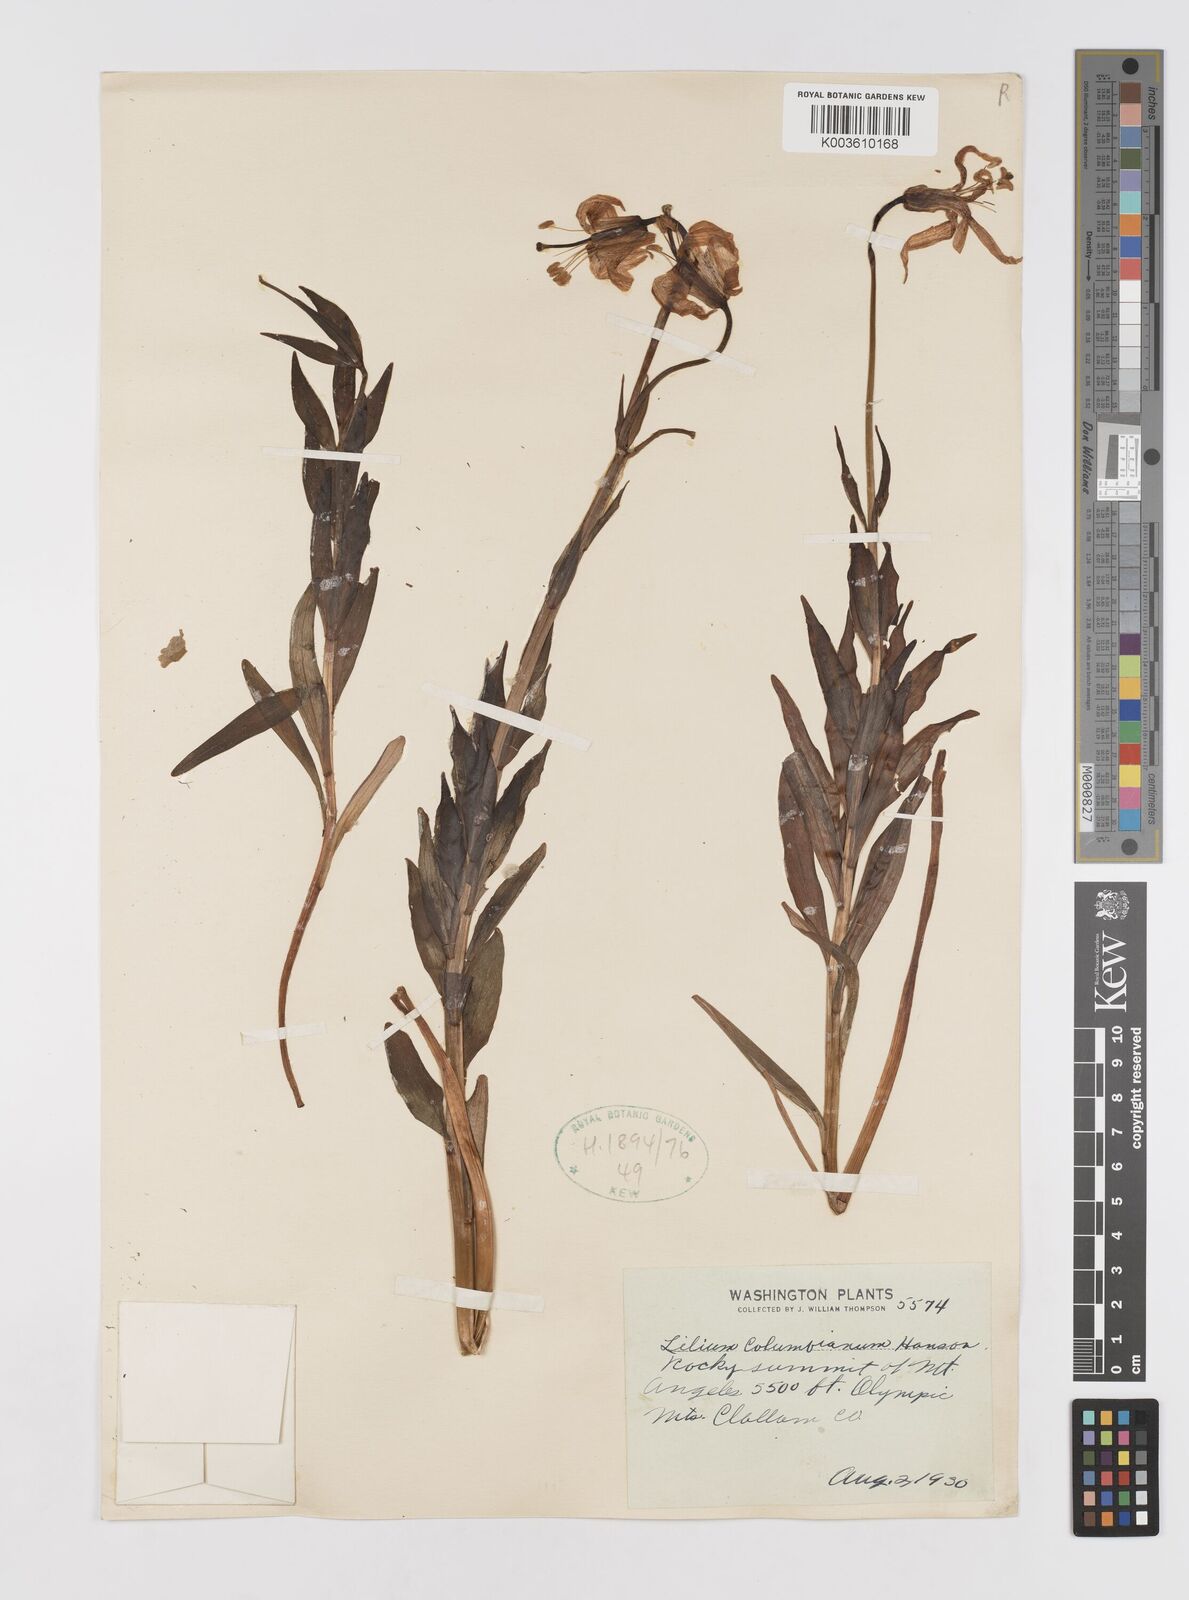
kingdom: Plantae
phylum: Tracheophyta
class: Liliopsida
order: Liliales
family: Liliaceae
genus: Lilium
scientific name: Lilium
